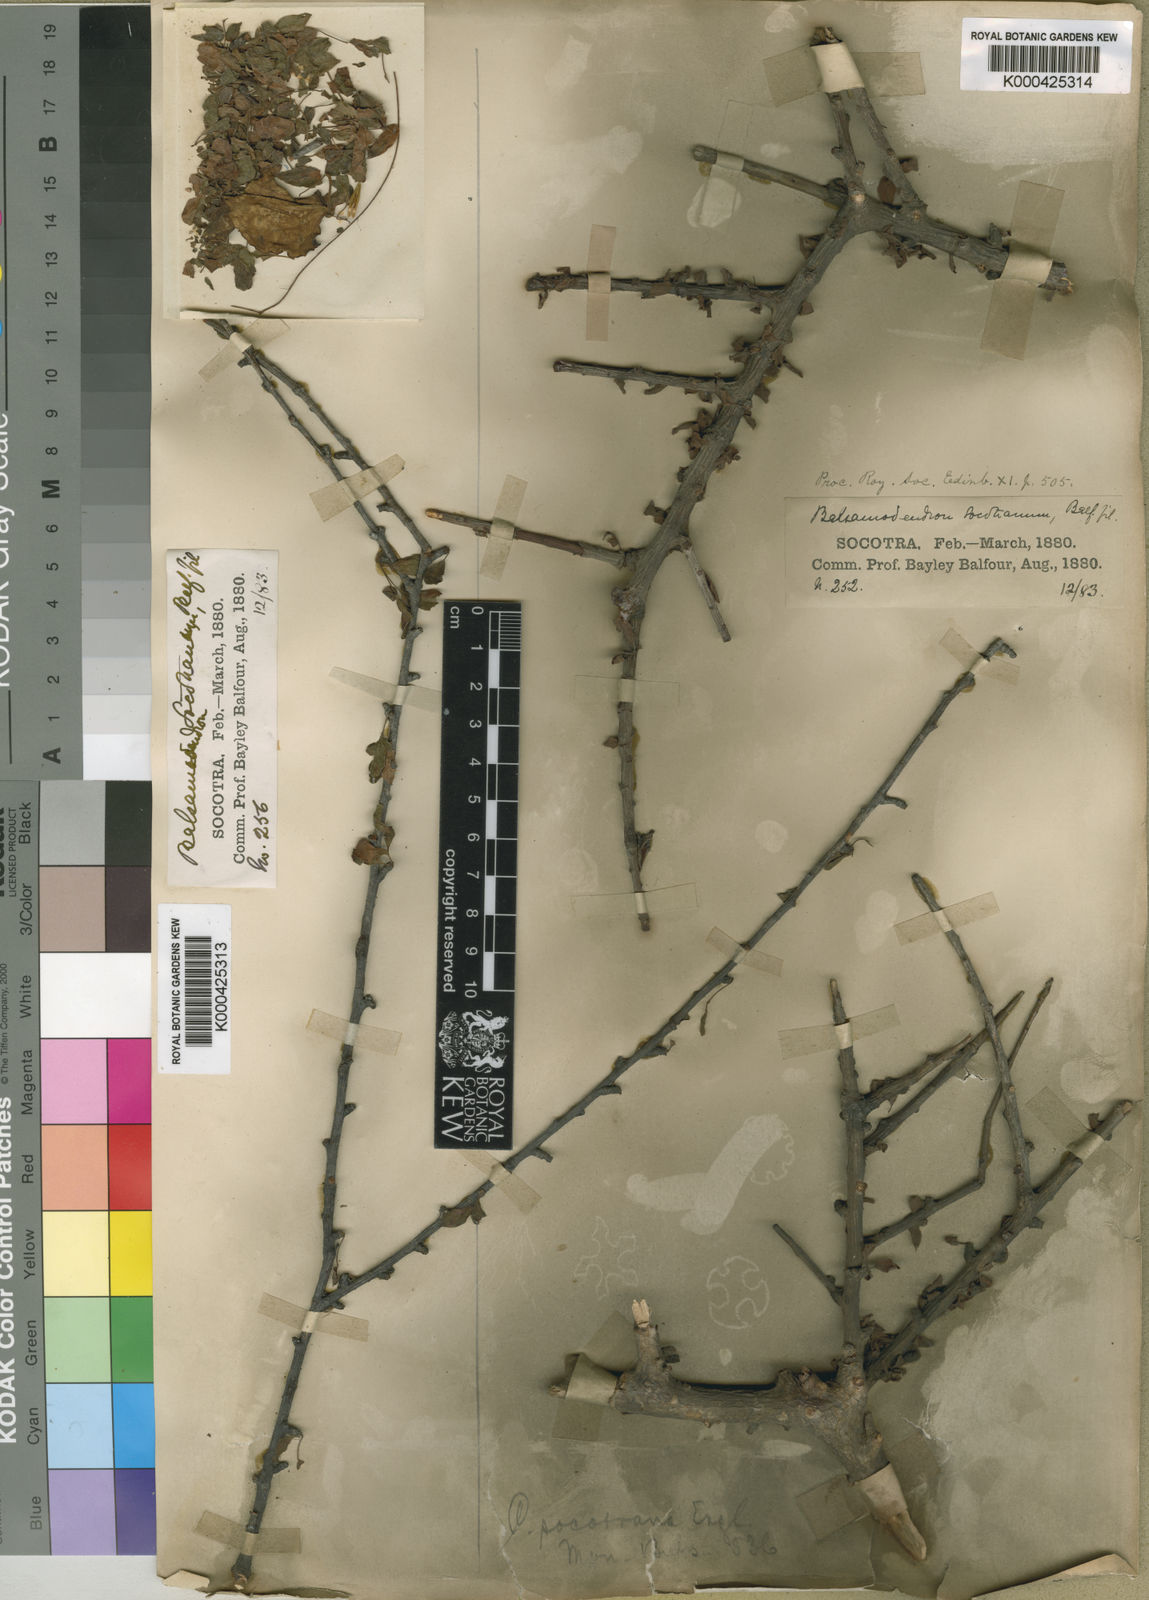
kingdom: Plantae
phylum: Tracheophyta
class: Magnoliopsida
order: Sapindales
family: Burseraceae
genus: Commiphora
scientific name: Commiphora socotrana
